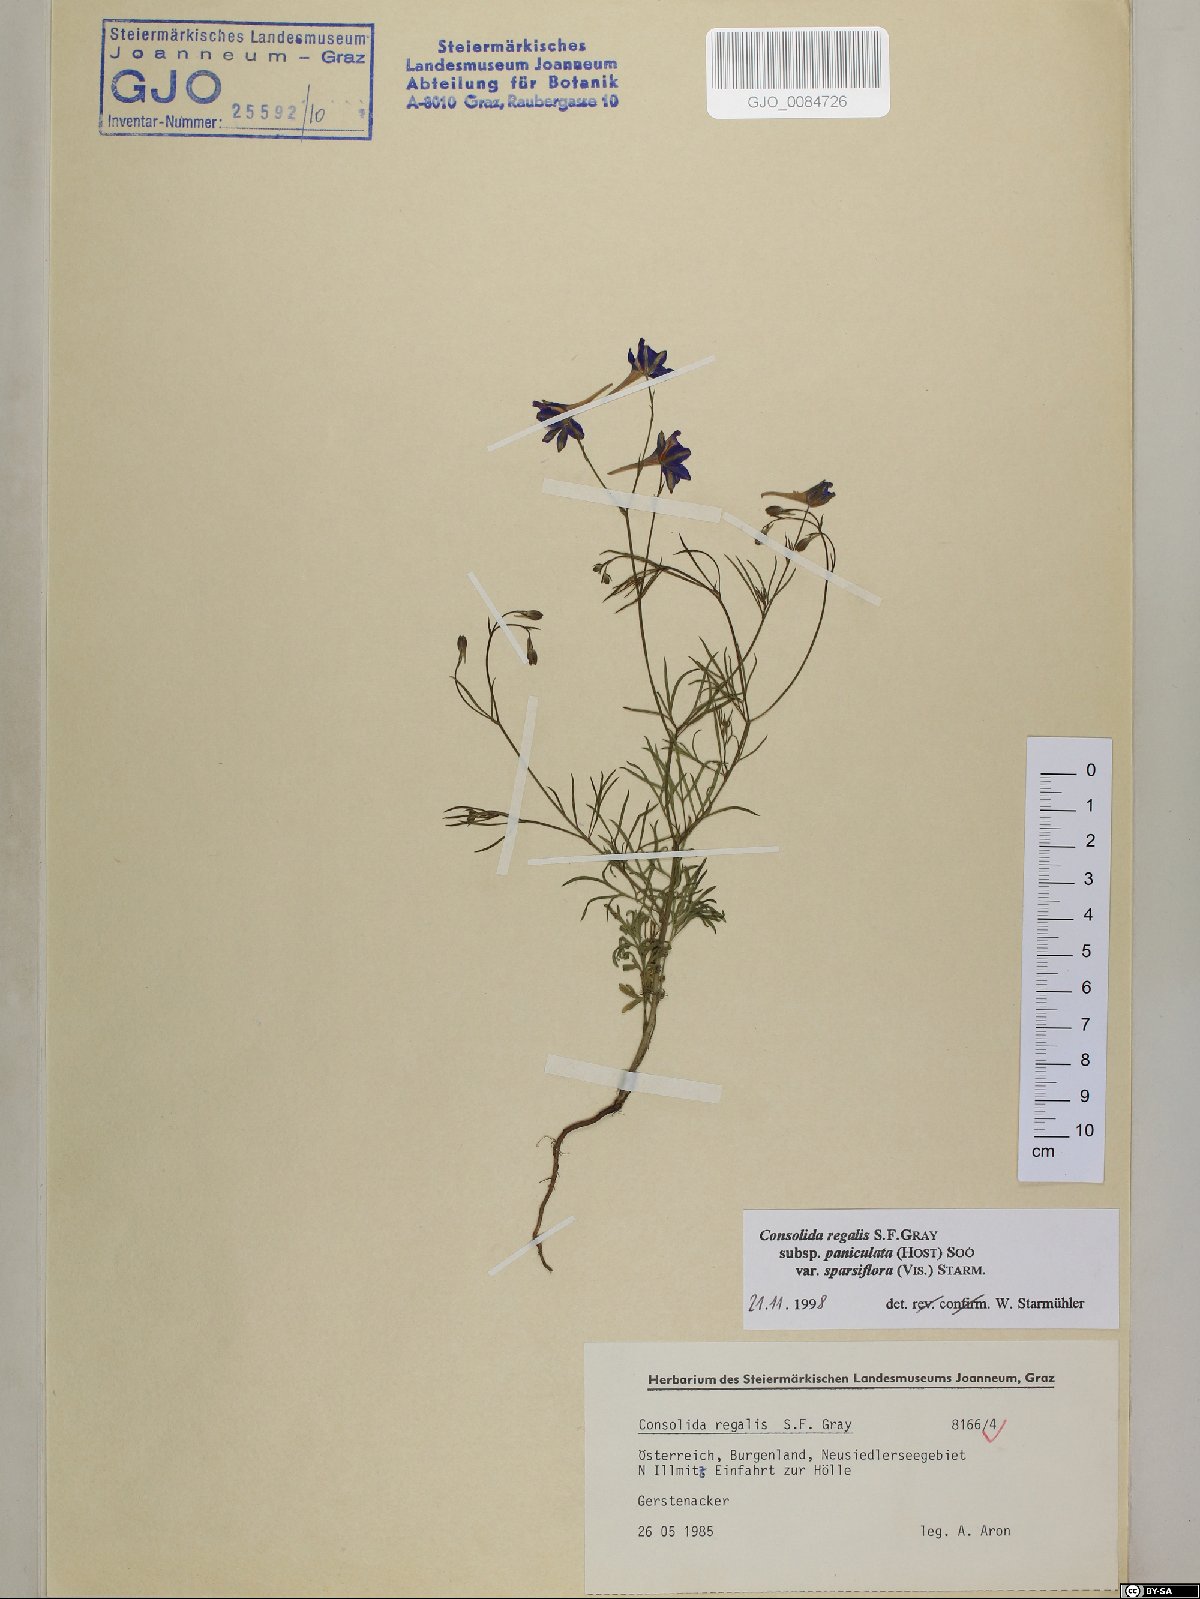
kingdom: Plantae
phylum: Tracheophyta
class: Magnoliopsida
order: Ranunculales
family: Ranunculaceae
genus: Delphinium
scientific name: Delphinium consolida
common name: Branching larkspur
